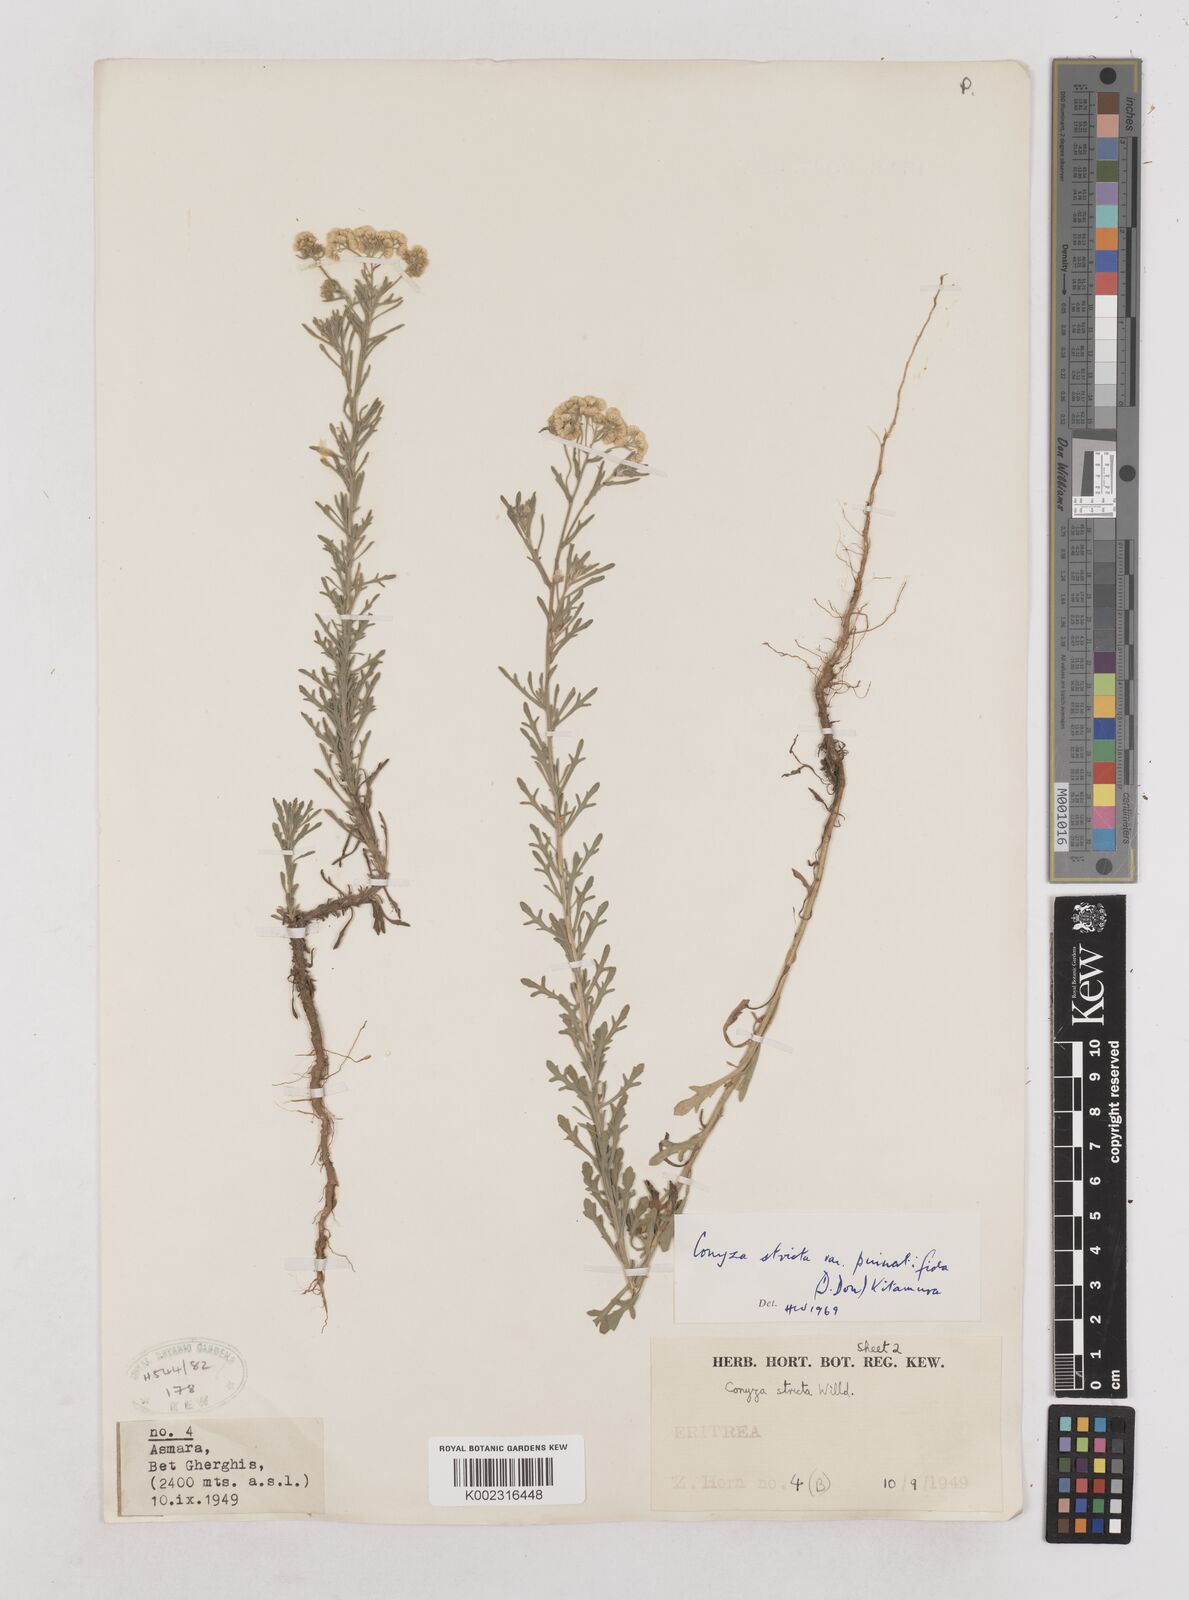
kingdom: Plantae
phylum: Tracheophyta
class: Magnoliopsida
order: Asterales
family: Asteraceae
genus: Nidorella
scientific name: Nidorella triloba
